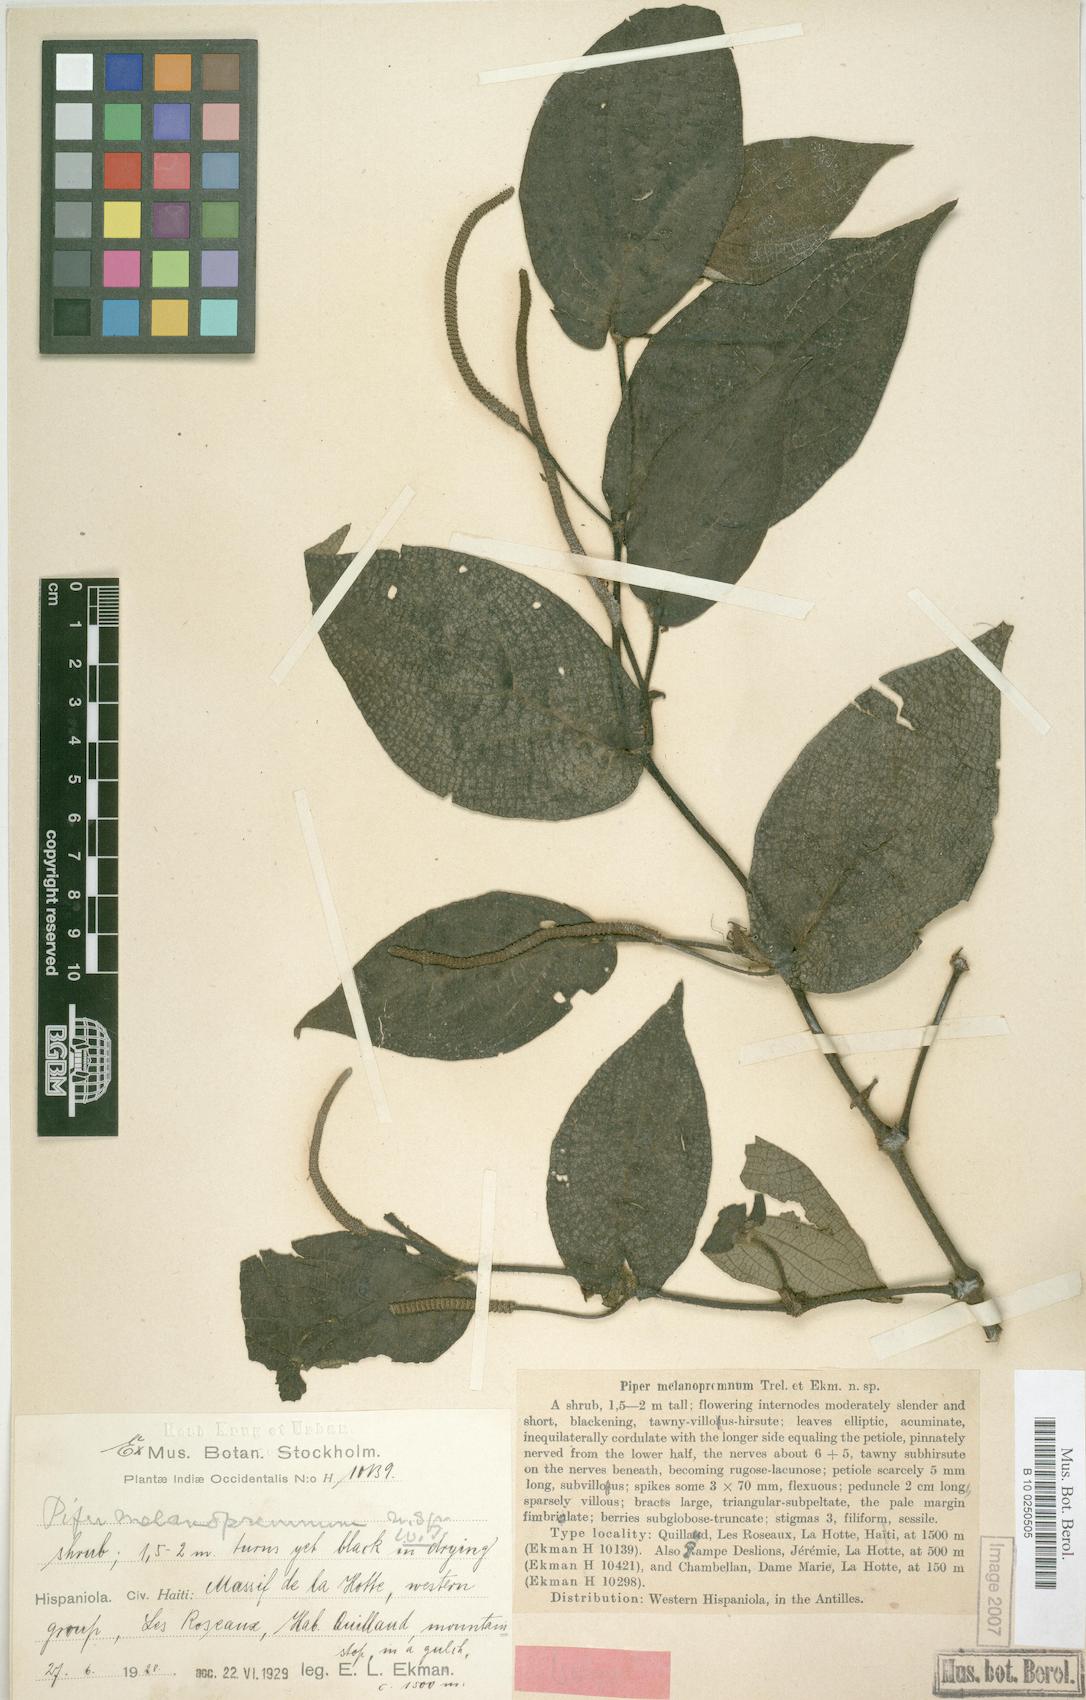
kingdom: Plantae
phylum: Tracheophyta
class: Magnoliopsida
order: Piperales
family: Piperaceae
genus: Piper
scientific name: Piper melanopremnum
